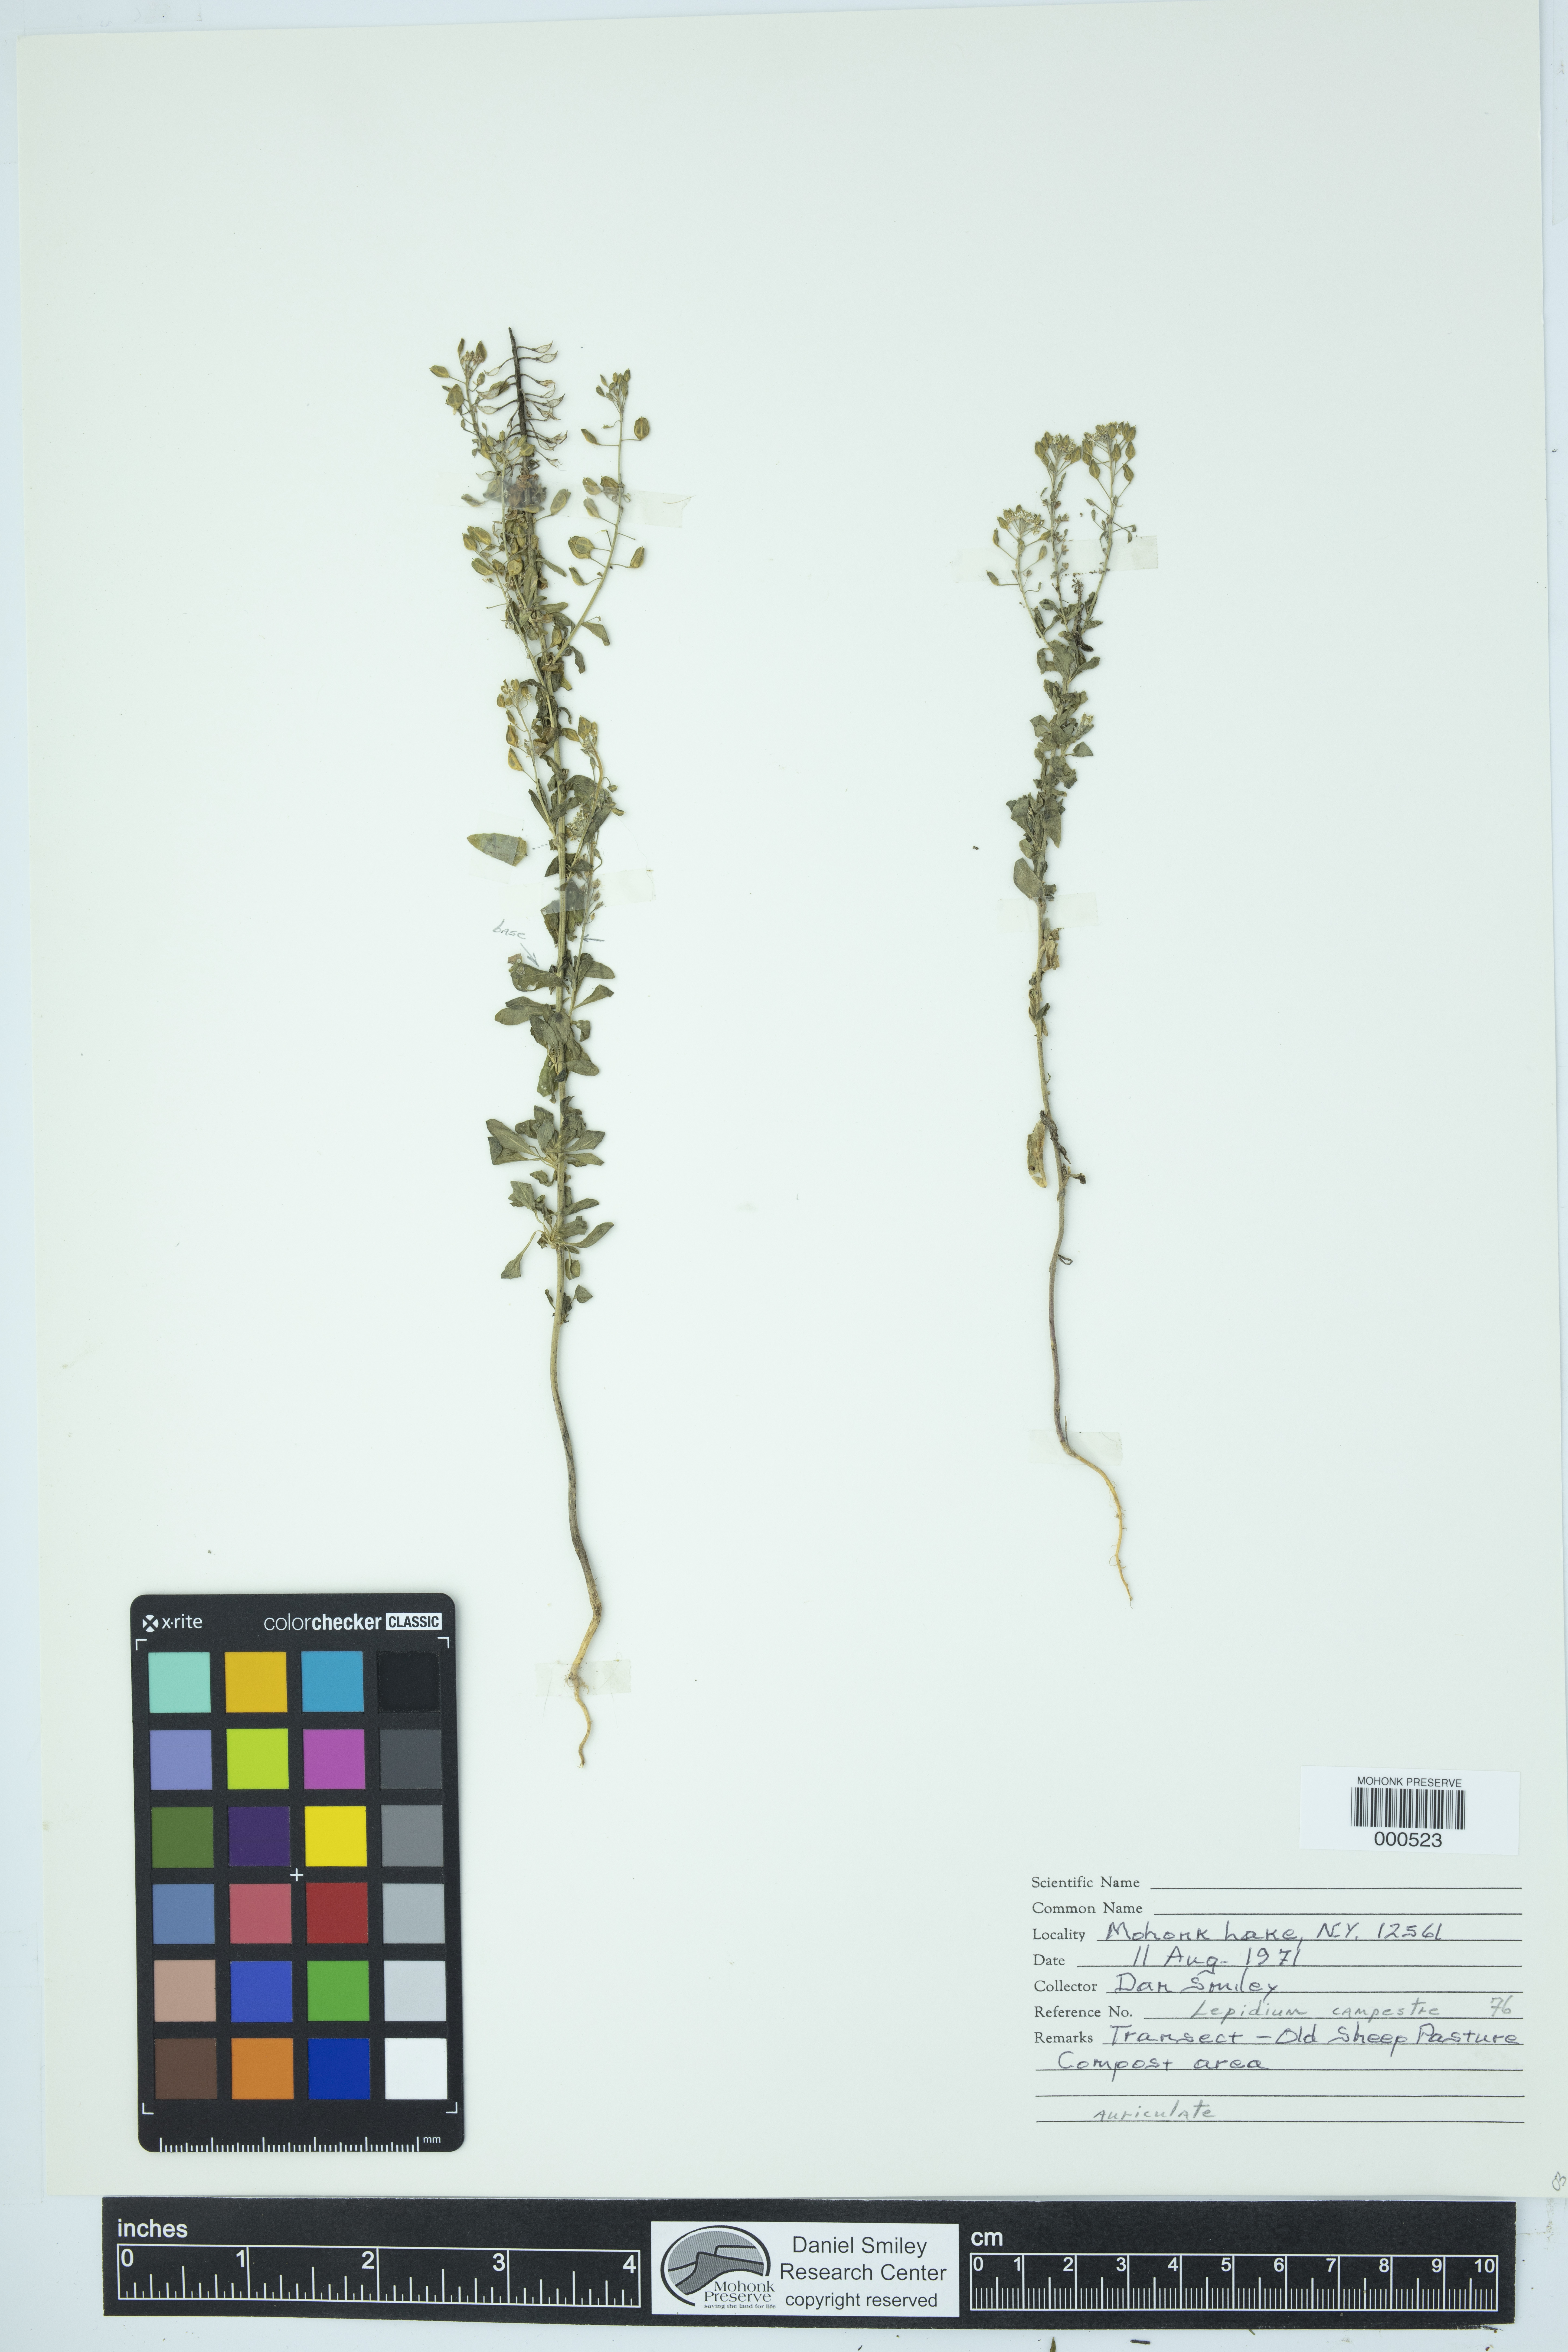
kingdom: Plantae
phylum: Tracheophyta
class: Magnoliopsida
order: Brassicales
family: Brassicaceae
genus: Lepidium
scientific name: Lepidium campestre
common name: Field pepperwort
